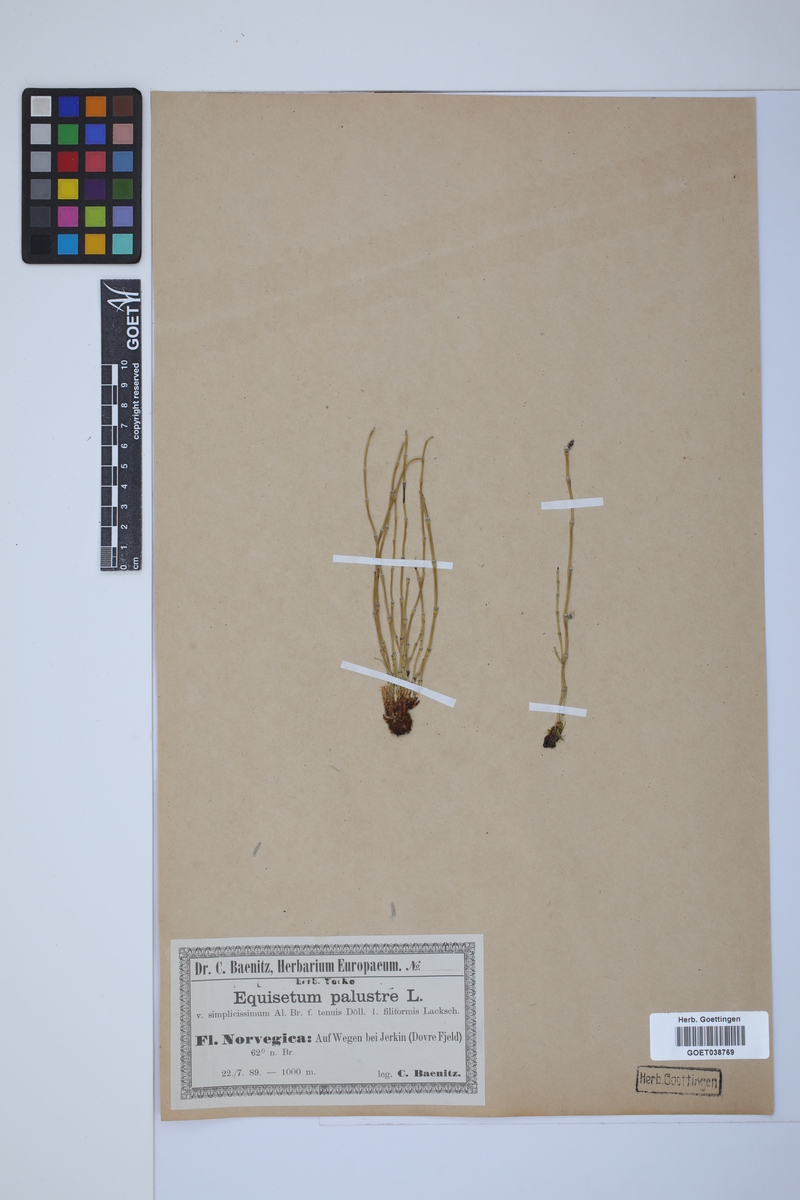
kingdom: Plantae
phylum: Tracheophyta
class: Polypodiopsida
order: Equisetales
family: Equisetaceae
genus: Equisetum
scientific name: Equisetum palustre
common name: Marsh horsetail
